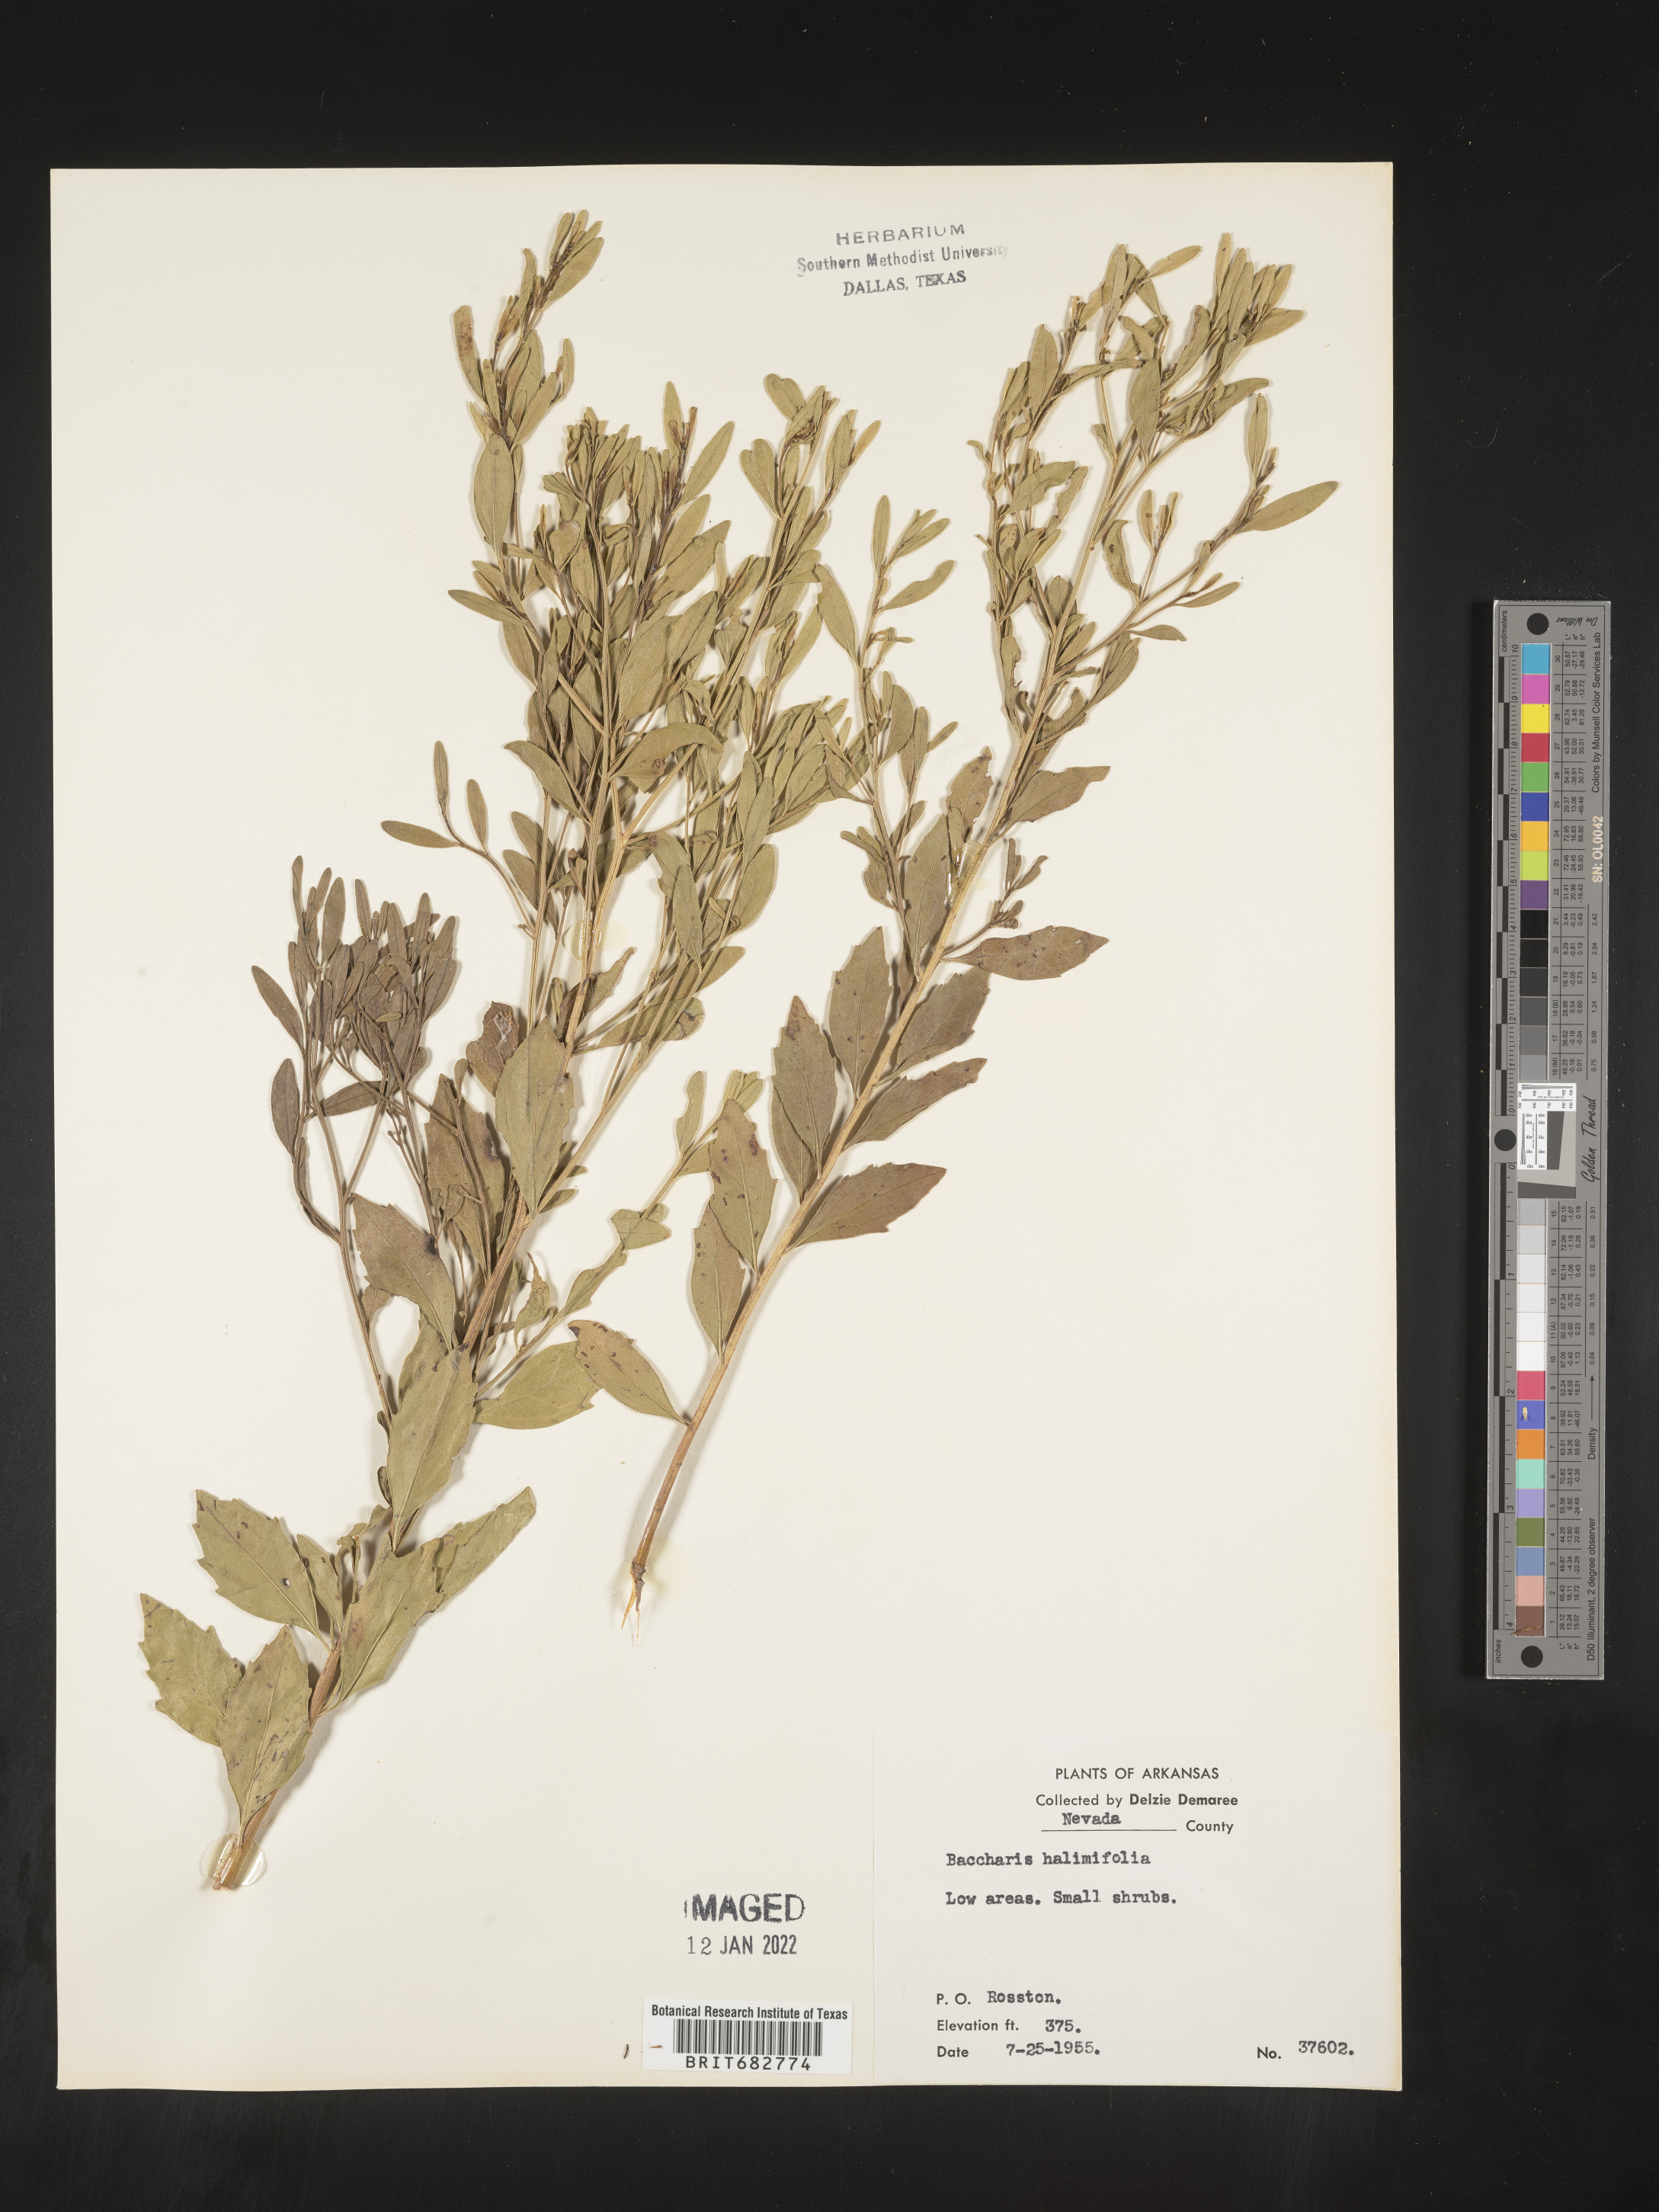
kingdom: Plantae
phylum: Tracheophyta
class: Magnoliopsida
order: Asterales
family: Asteraceae
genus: Nidorella
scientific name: Nidorella ivifolia
